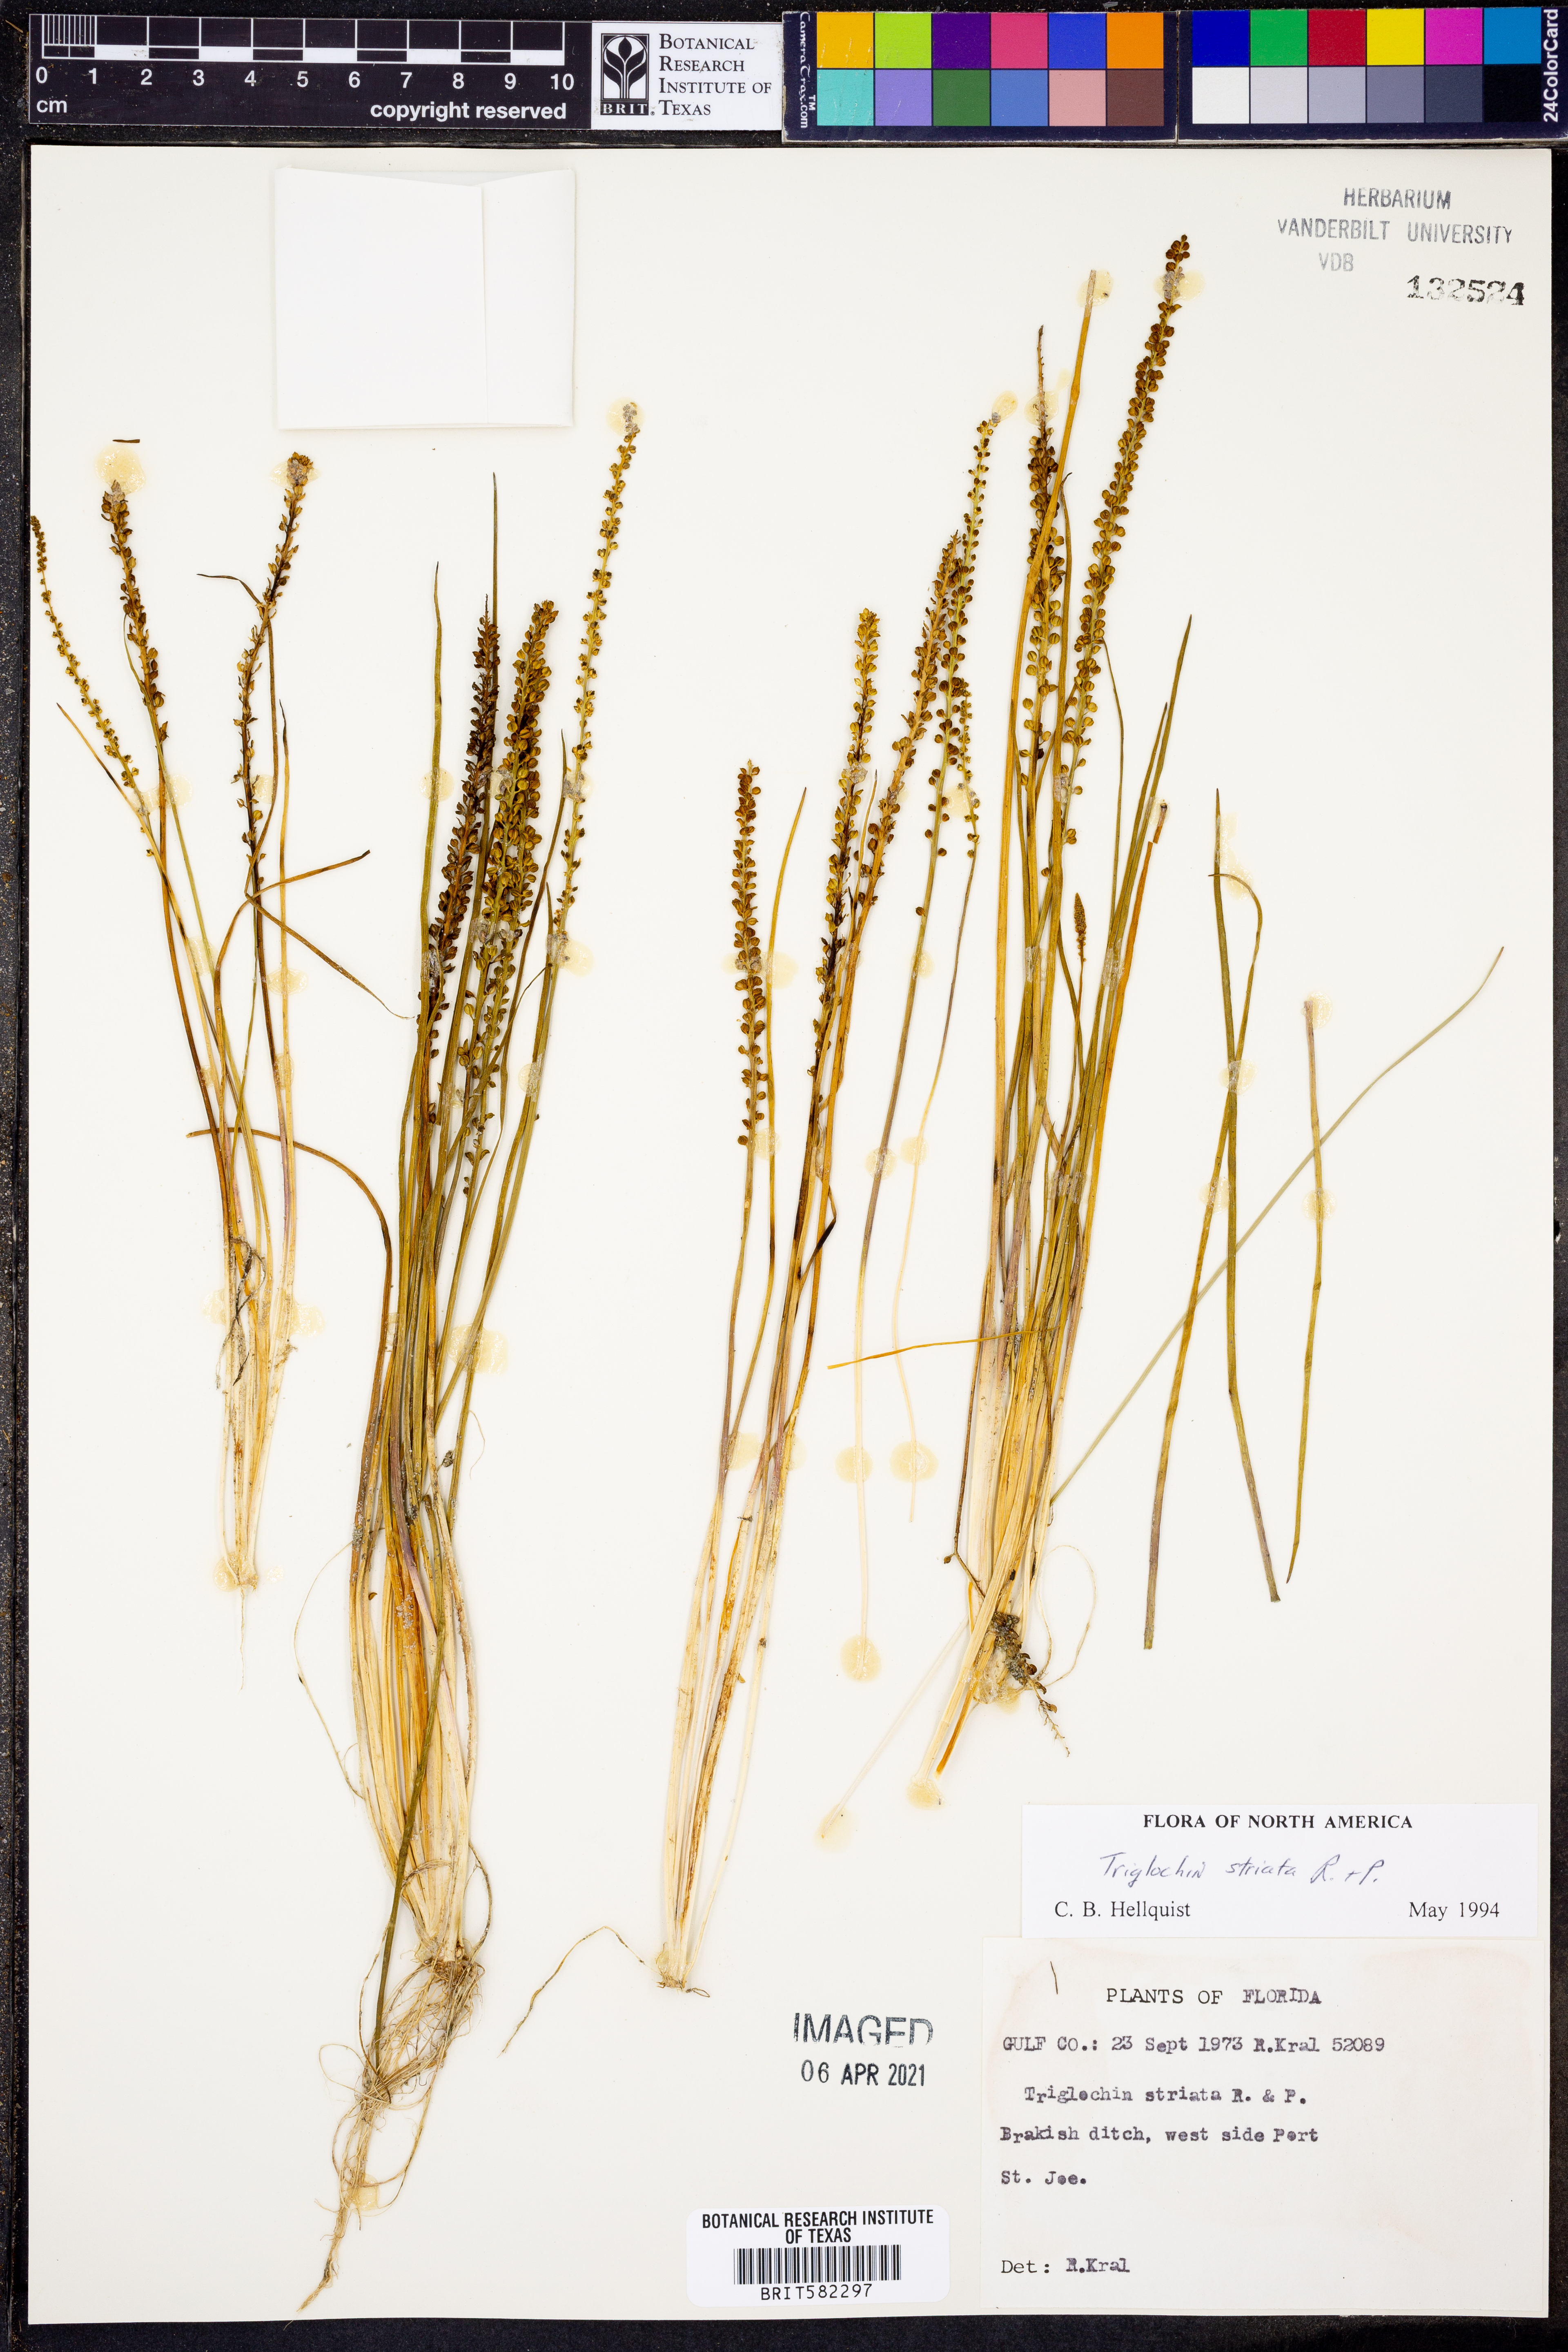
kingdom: Plantae
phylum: Tracheophyta
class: Liliopsida
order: Alismatales
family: Juncaginaceae
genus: Triglochin
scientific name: Triglochin striata
